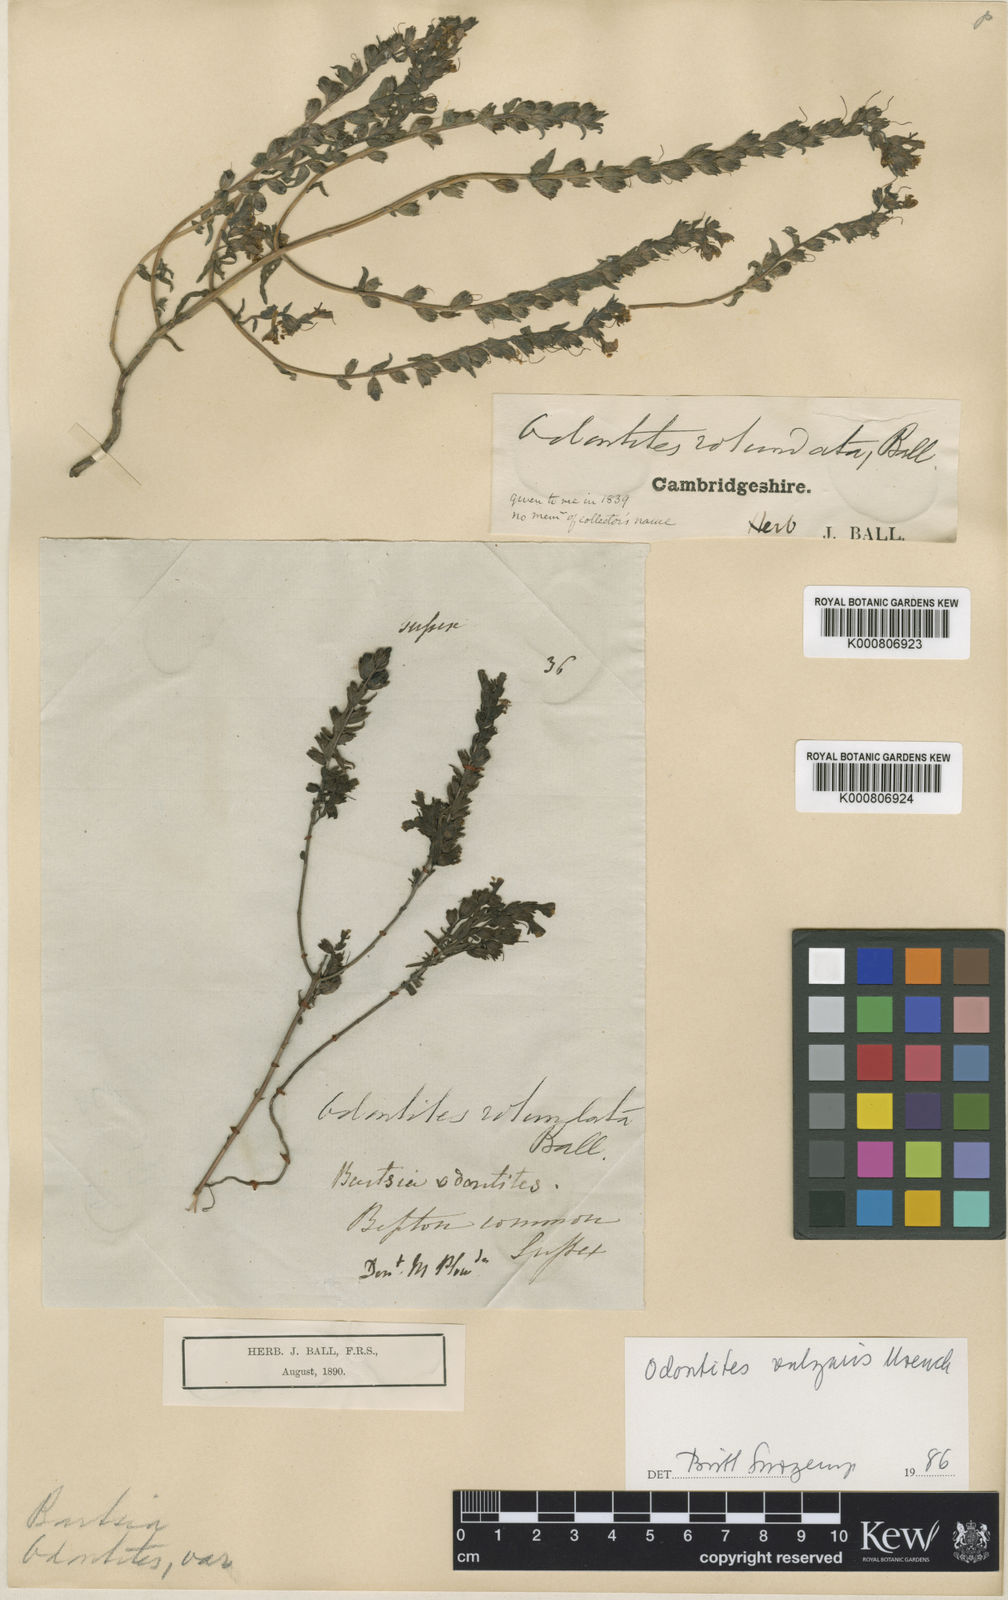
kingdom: Plantae
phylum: Tracheophyta
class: Magnoliopsida
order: Lamiales
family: Orobanchaceae
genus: Odontites
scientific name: Odontites vulgaris
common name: Broomrape
